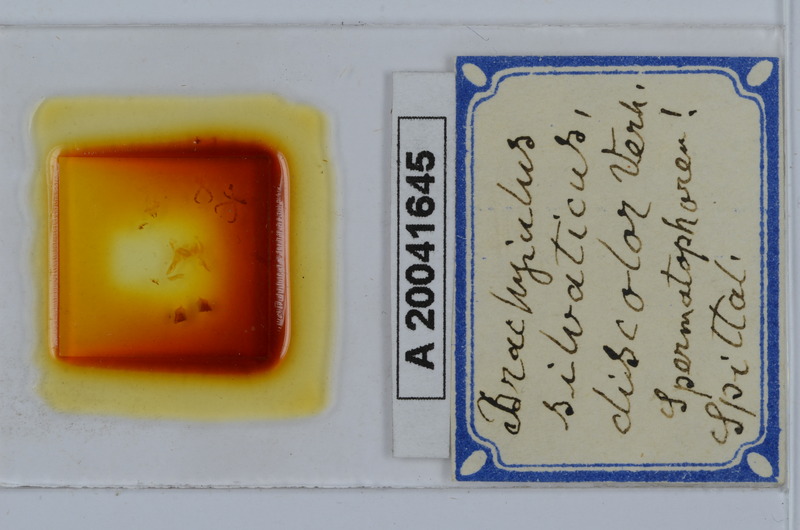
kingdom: Animalia
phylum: Arthropoda
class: Diplopoda
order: Julida
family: Julidae
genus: Megaphyllum
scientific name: Megaphyllum silvaticum
